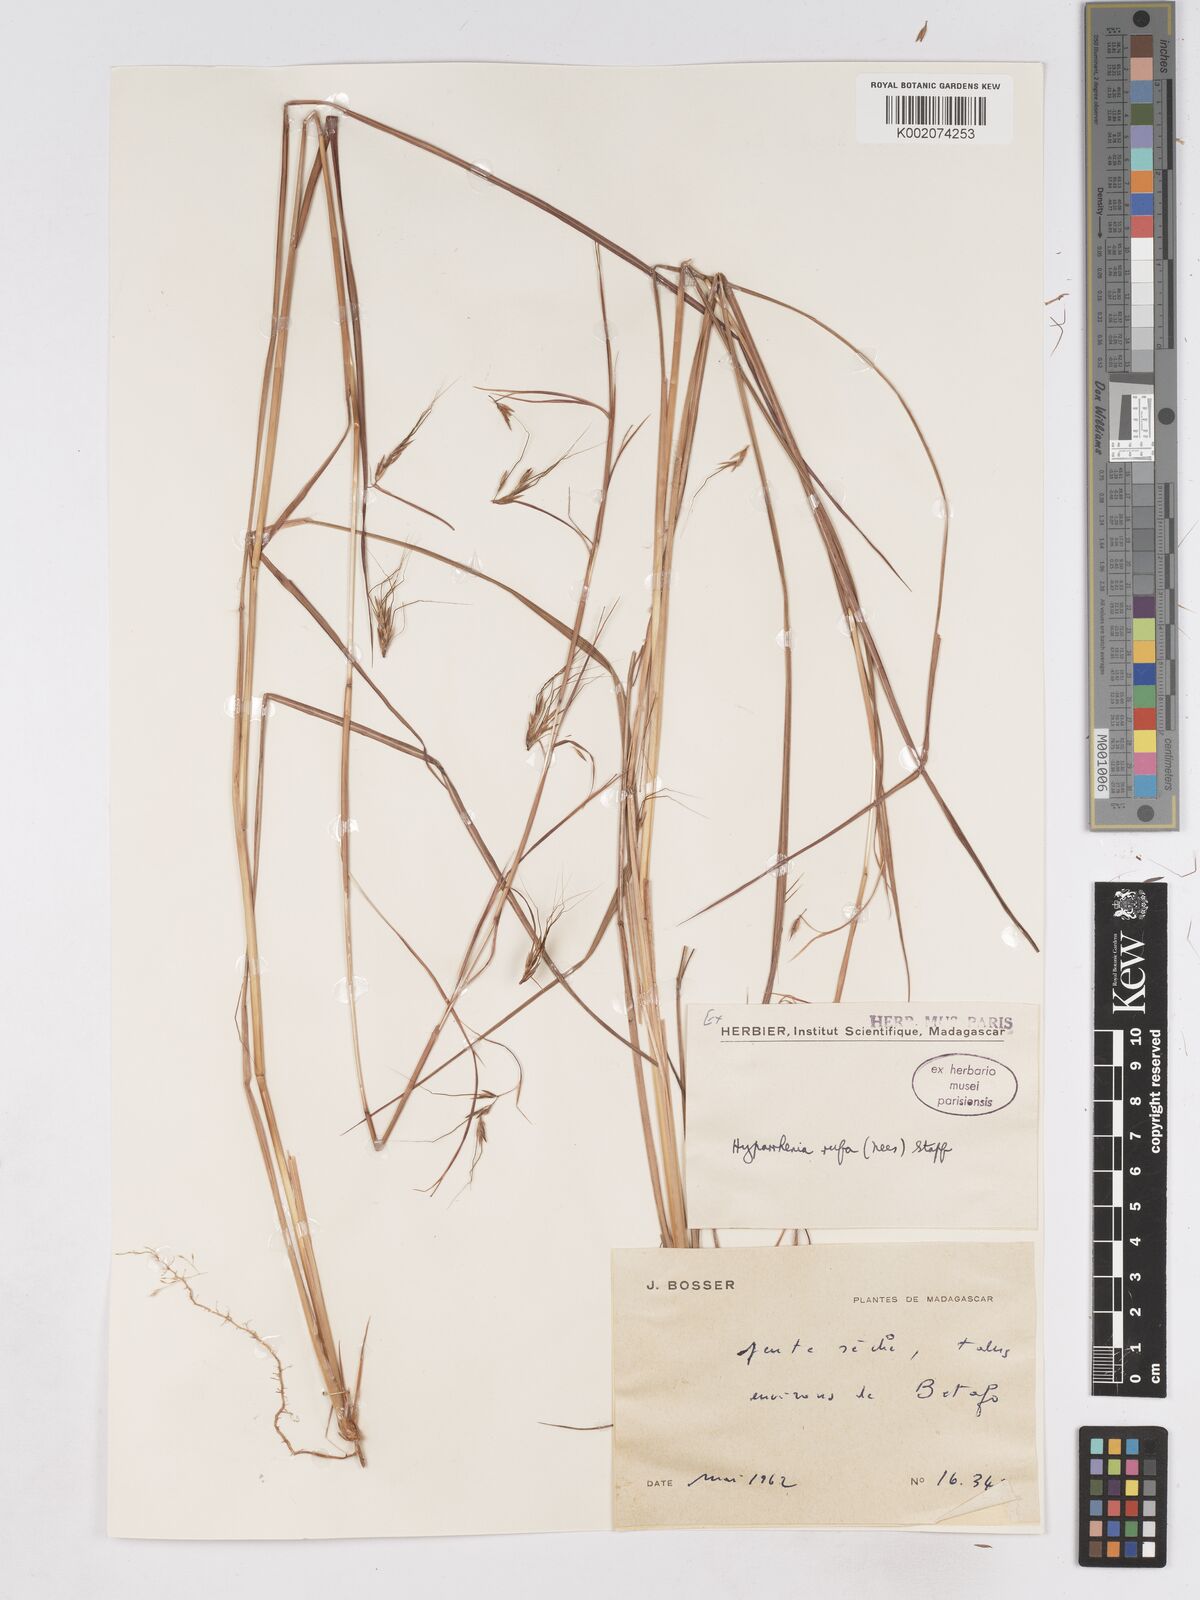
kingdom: Plantae
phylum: Tracheophyta
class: Liliopsida
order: Poales
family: Poaceae
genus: Hyparrhenia
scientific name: Hyparrhenia rufa
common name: Jaraguagrass
